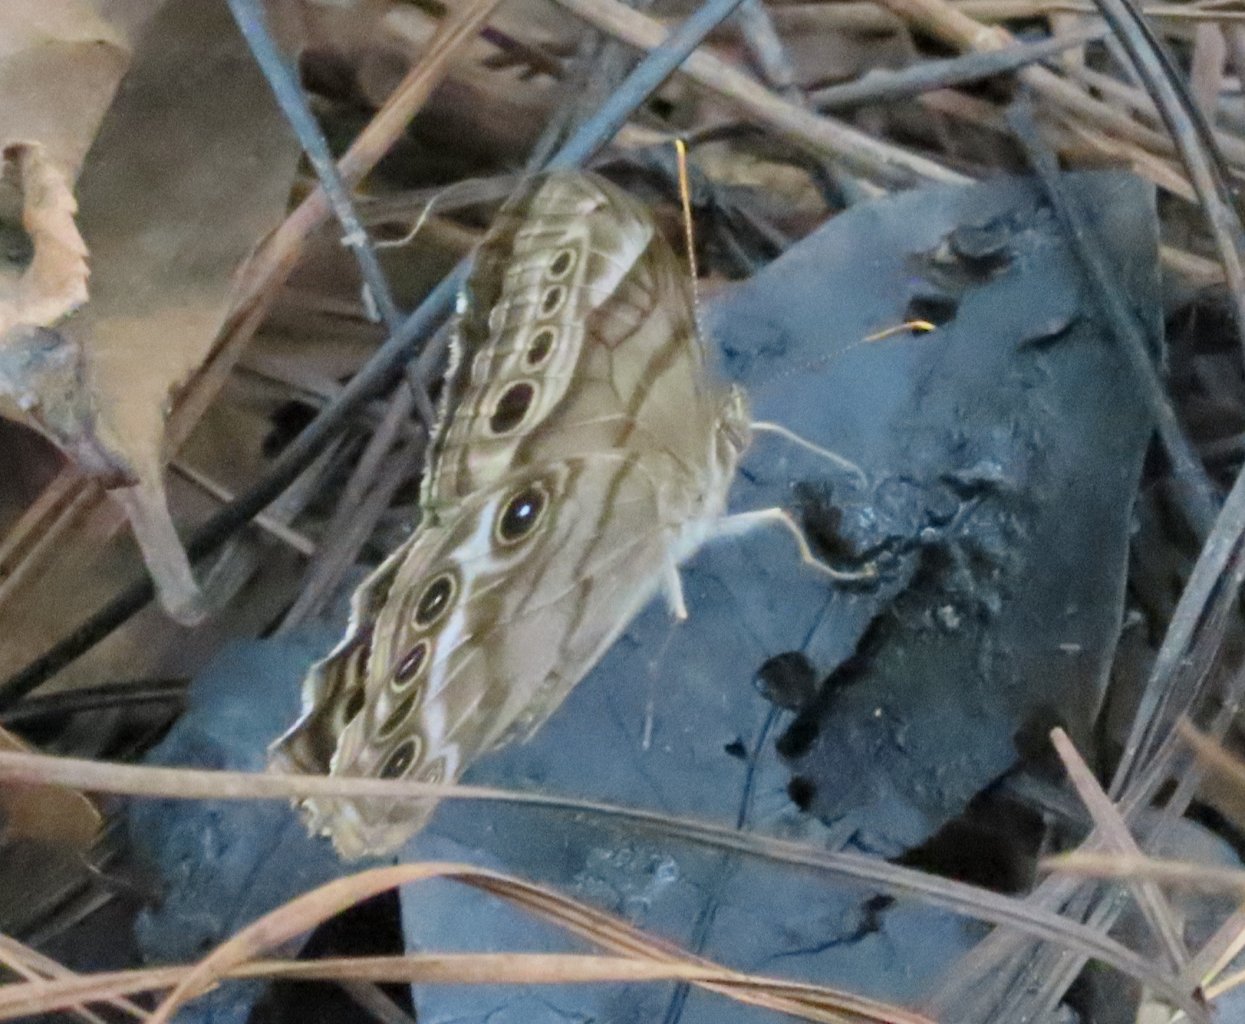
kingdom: Animalia
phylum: Arthropoda
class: Insecta
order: Lepidoptera
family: Nymphalidae
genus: Enodia
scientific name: Enodia portlandia
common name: Southern Pearly Eye
